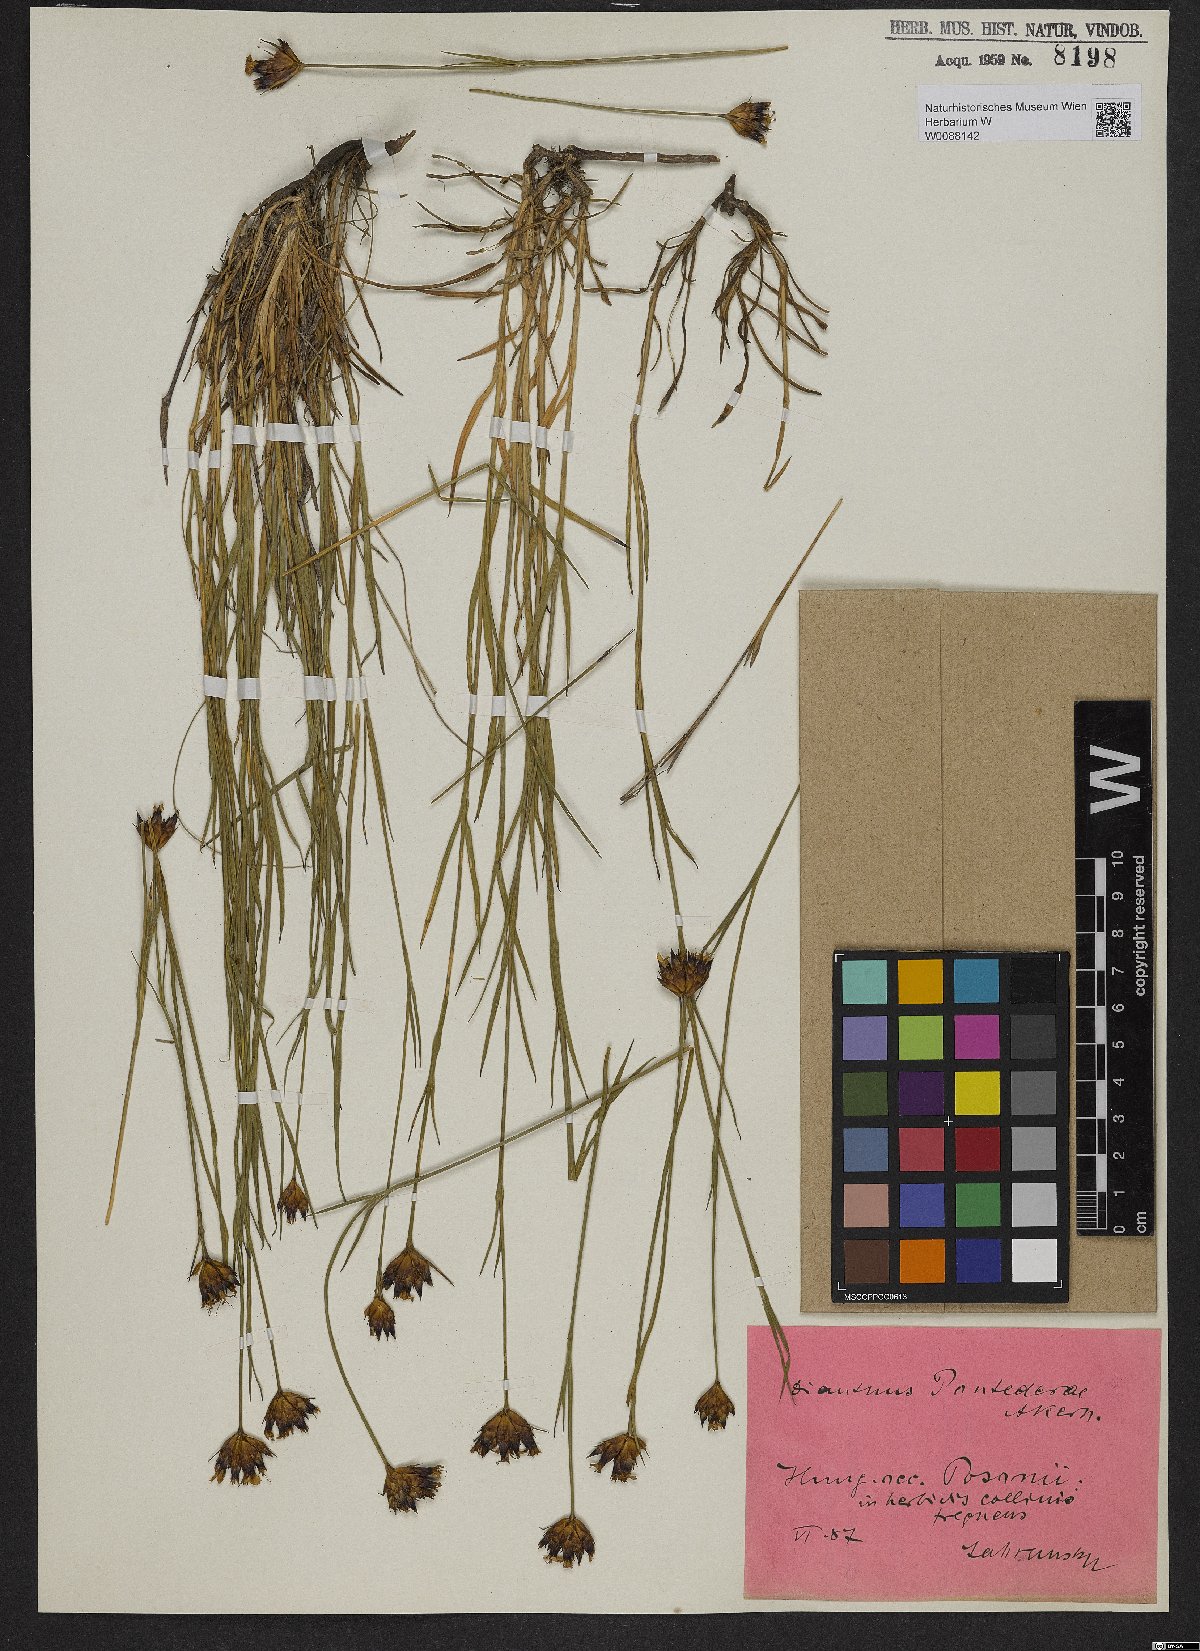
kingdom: Plantae
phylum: Tracheophyta
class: Magnoliopsida
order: Caryophyllales
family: Caryophyllaceae
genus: Dianthus
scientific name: Dianthus pontederae
